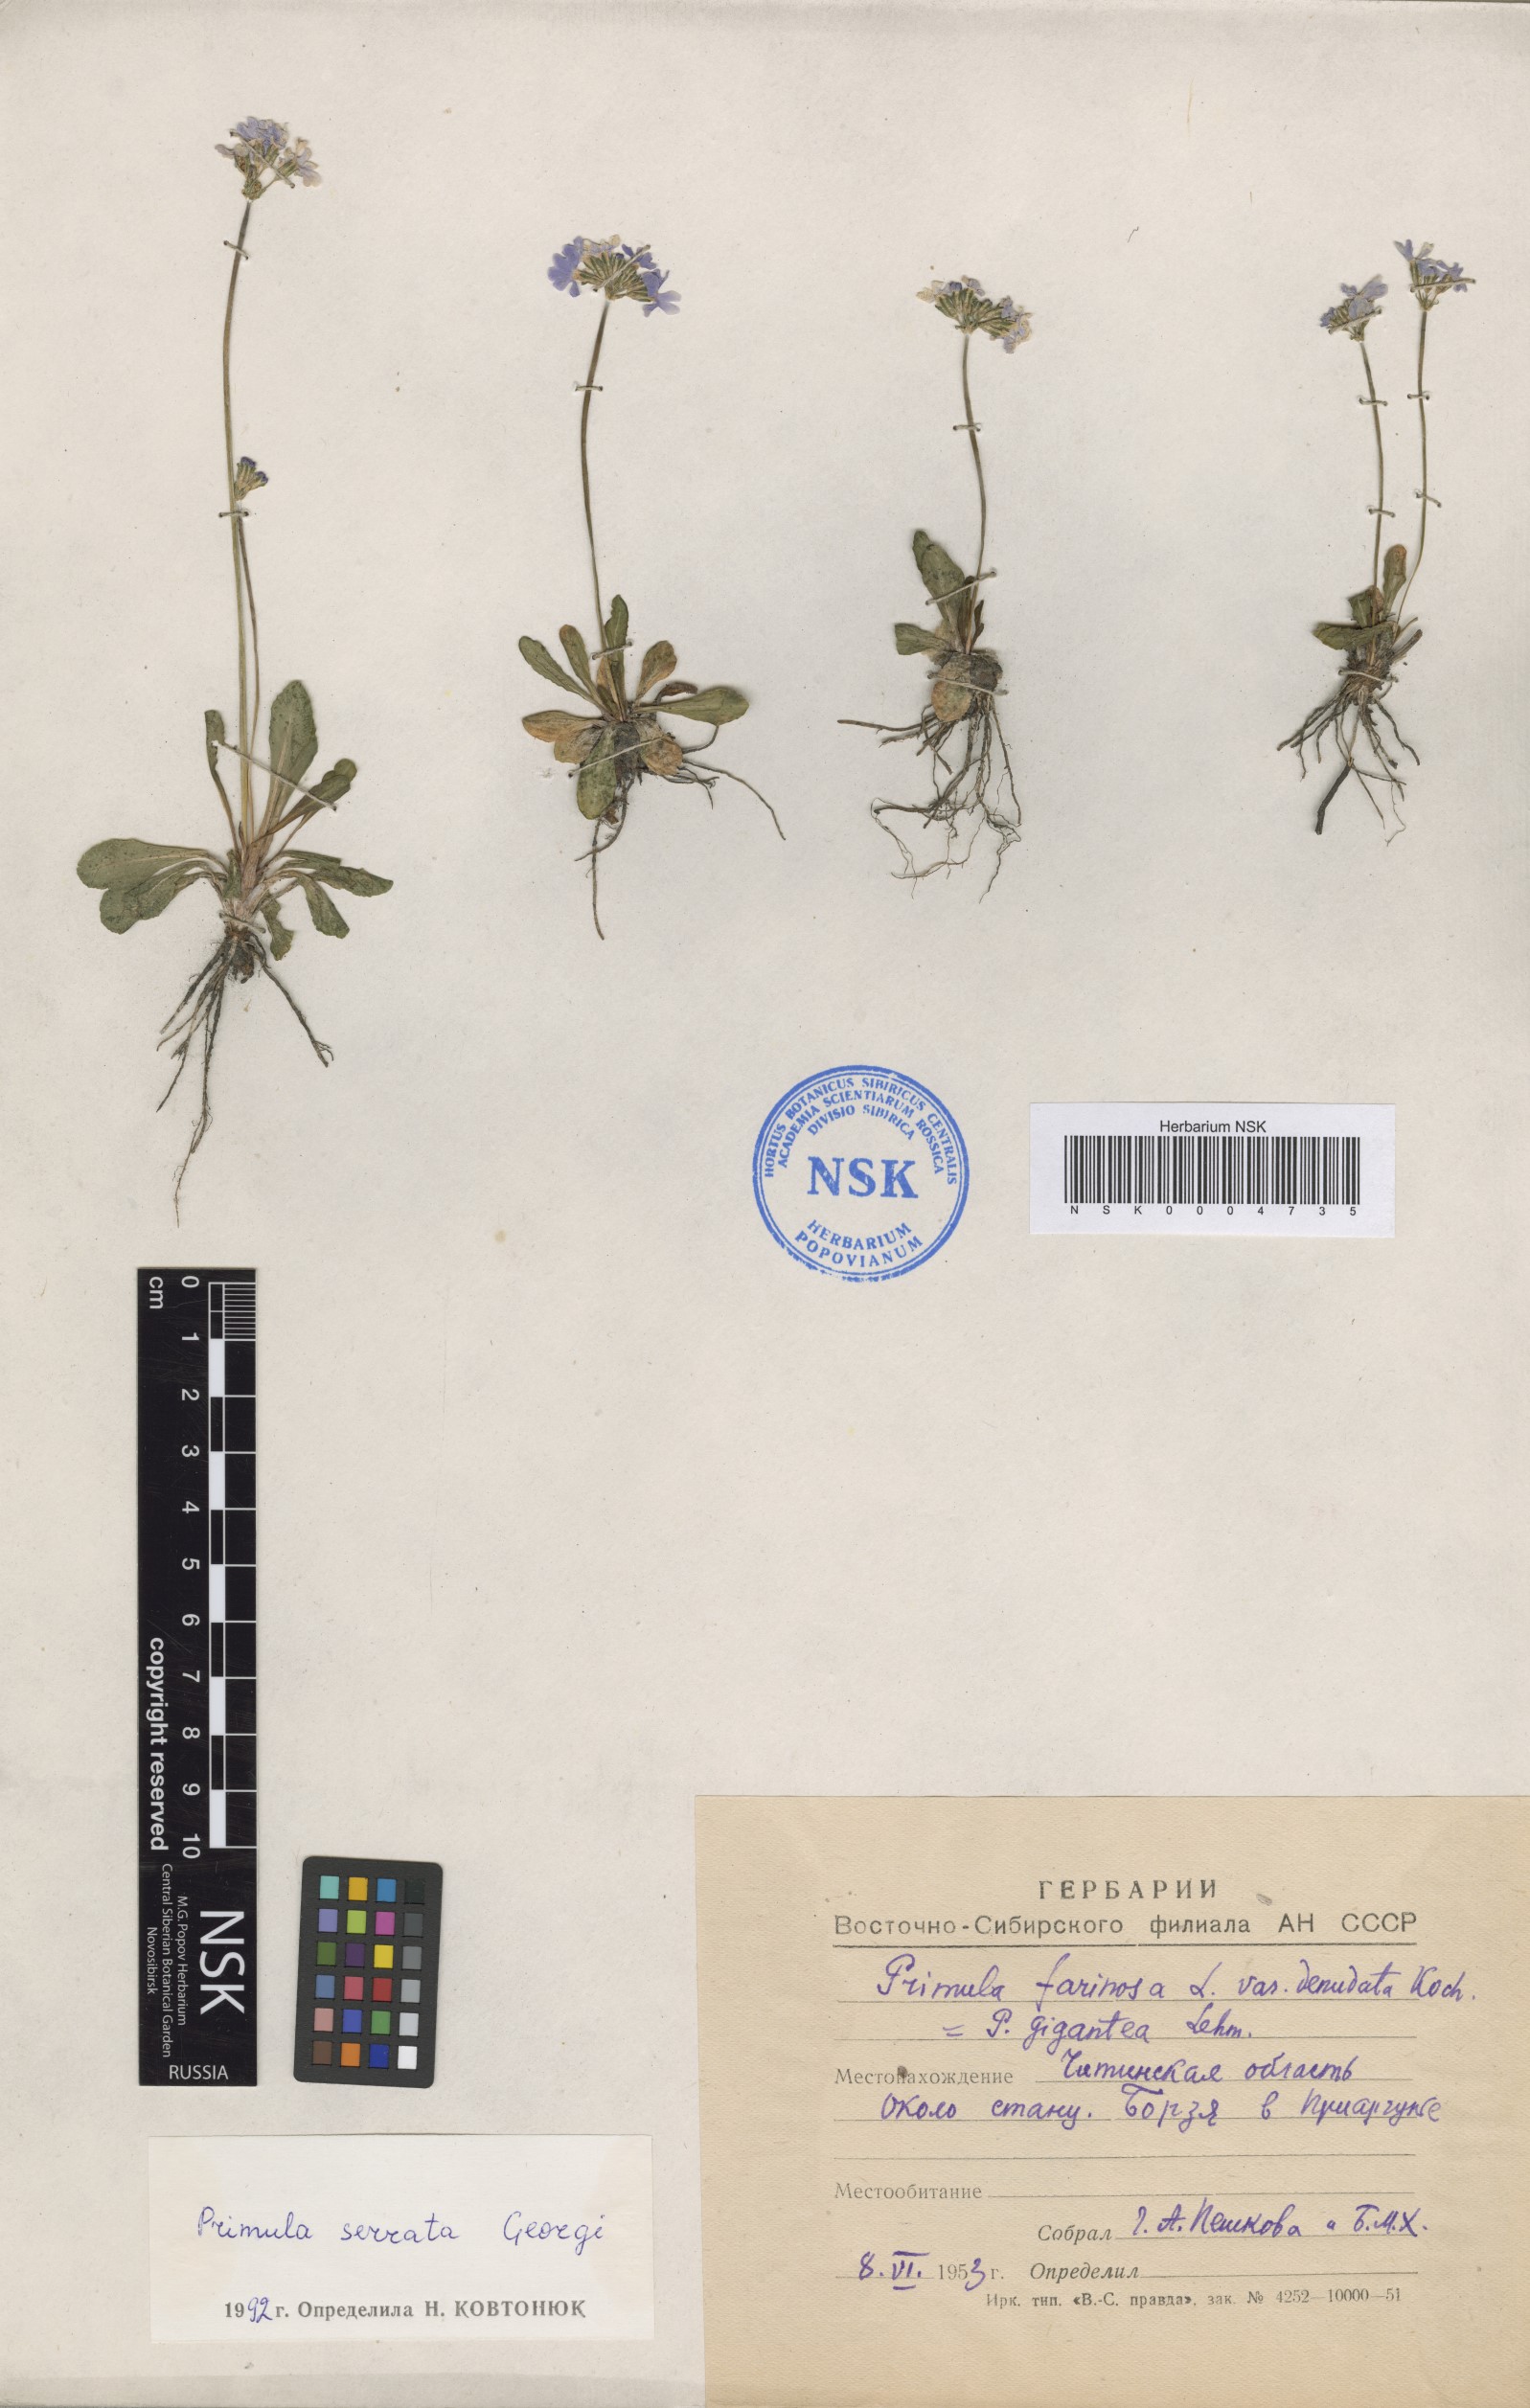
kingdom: Plantae
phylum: Tracheophyta
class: Magnoliopsida
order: Ericales
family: Primulaceae
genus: Primula
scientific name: Primula serrata
